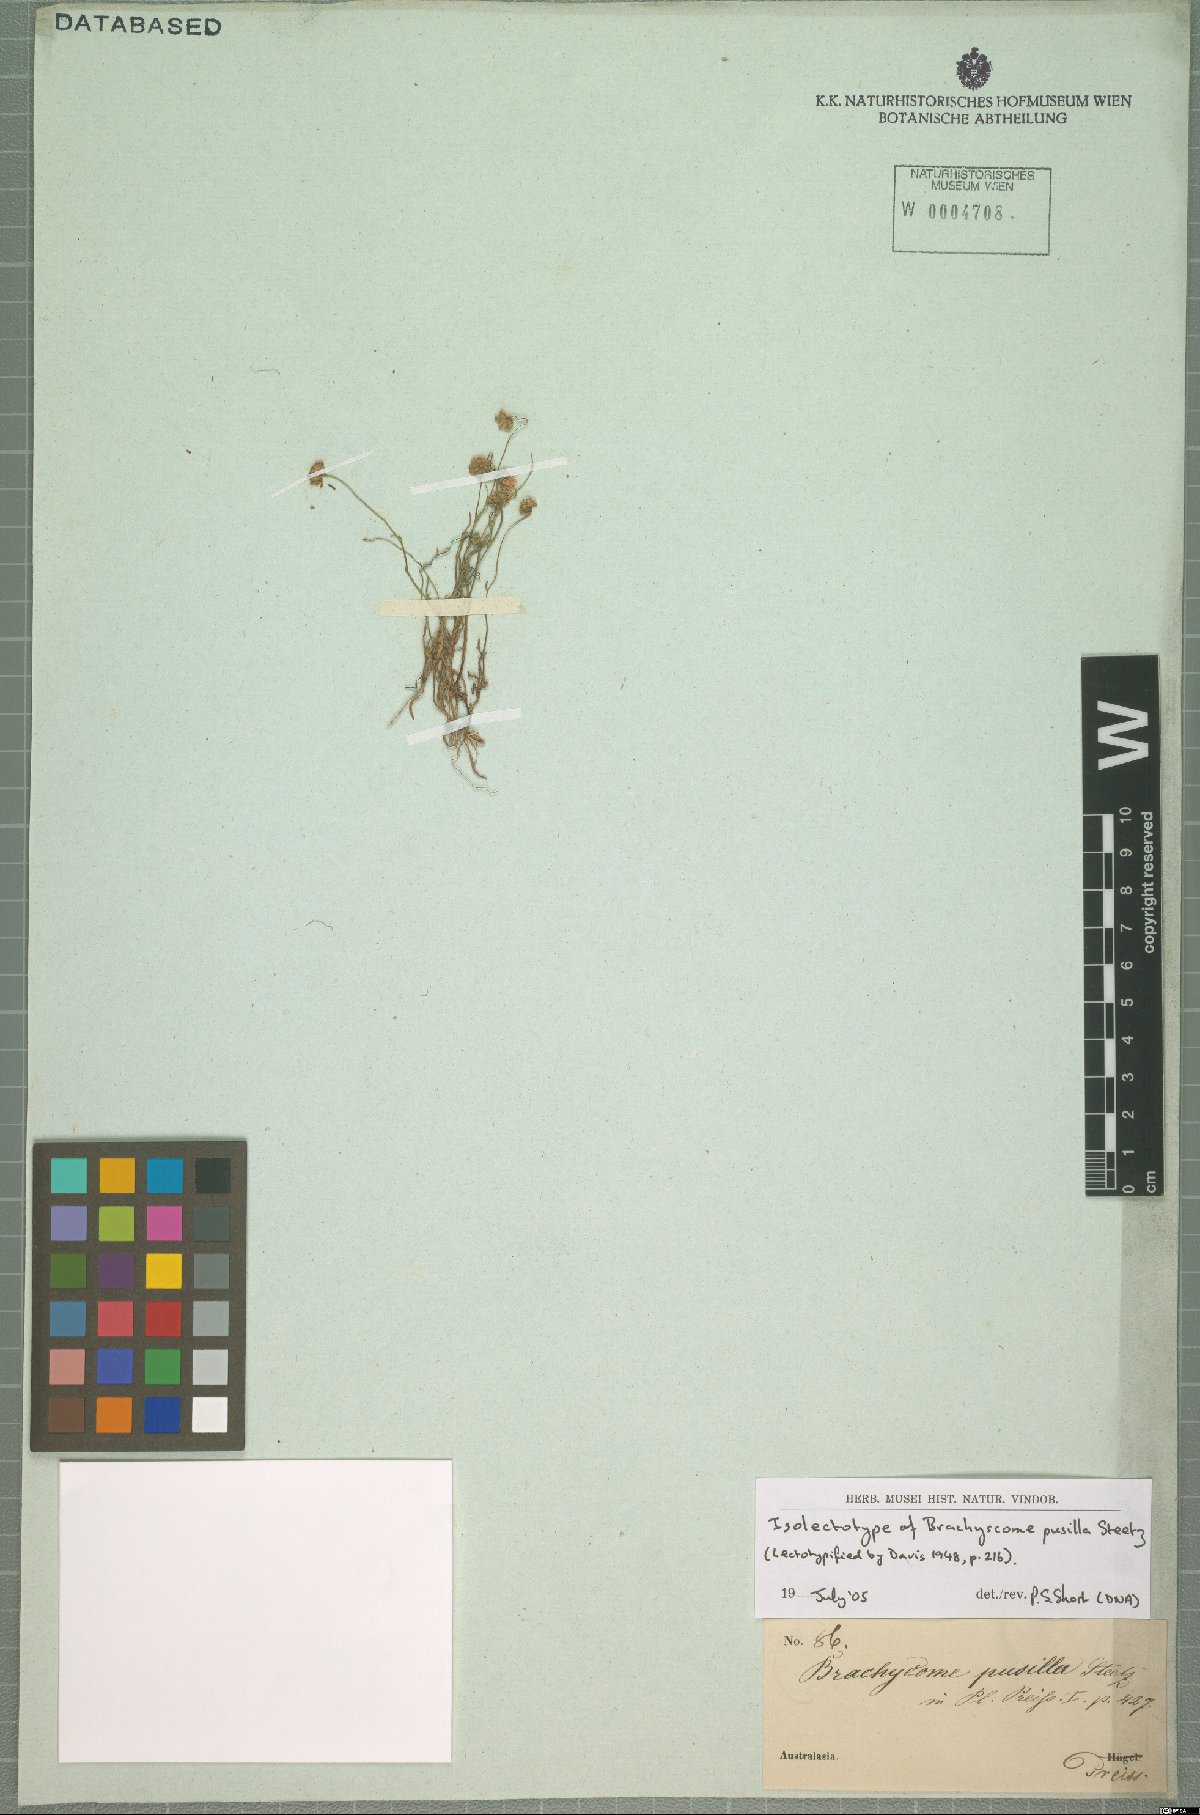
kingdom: Plantae
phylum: Tracheophyta
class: Magnoliopsida
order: Asterales
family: Asteraceae
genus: Brachyscome
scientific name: Brachyscome pusilla
